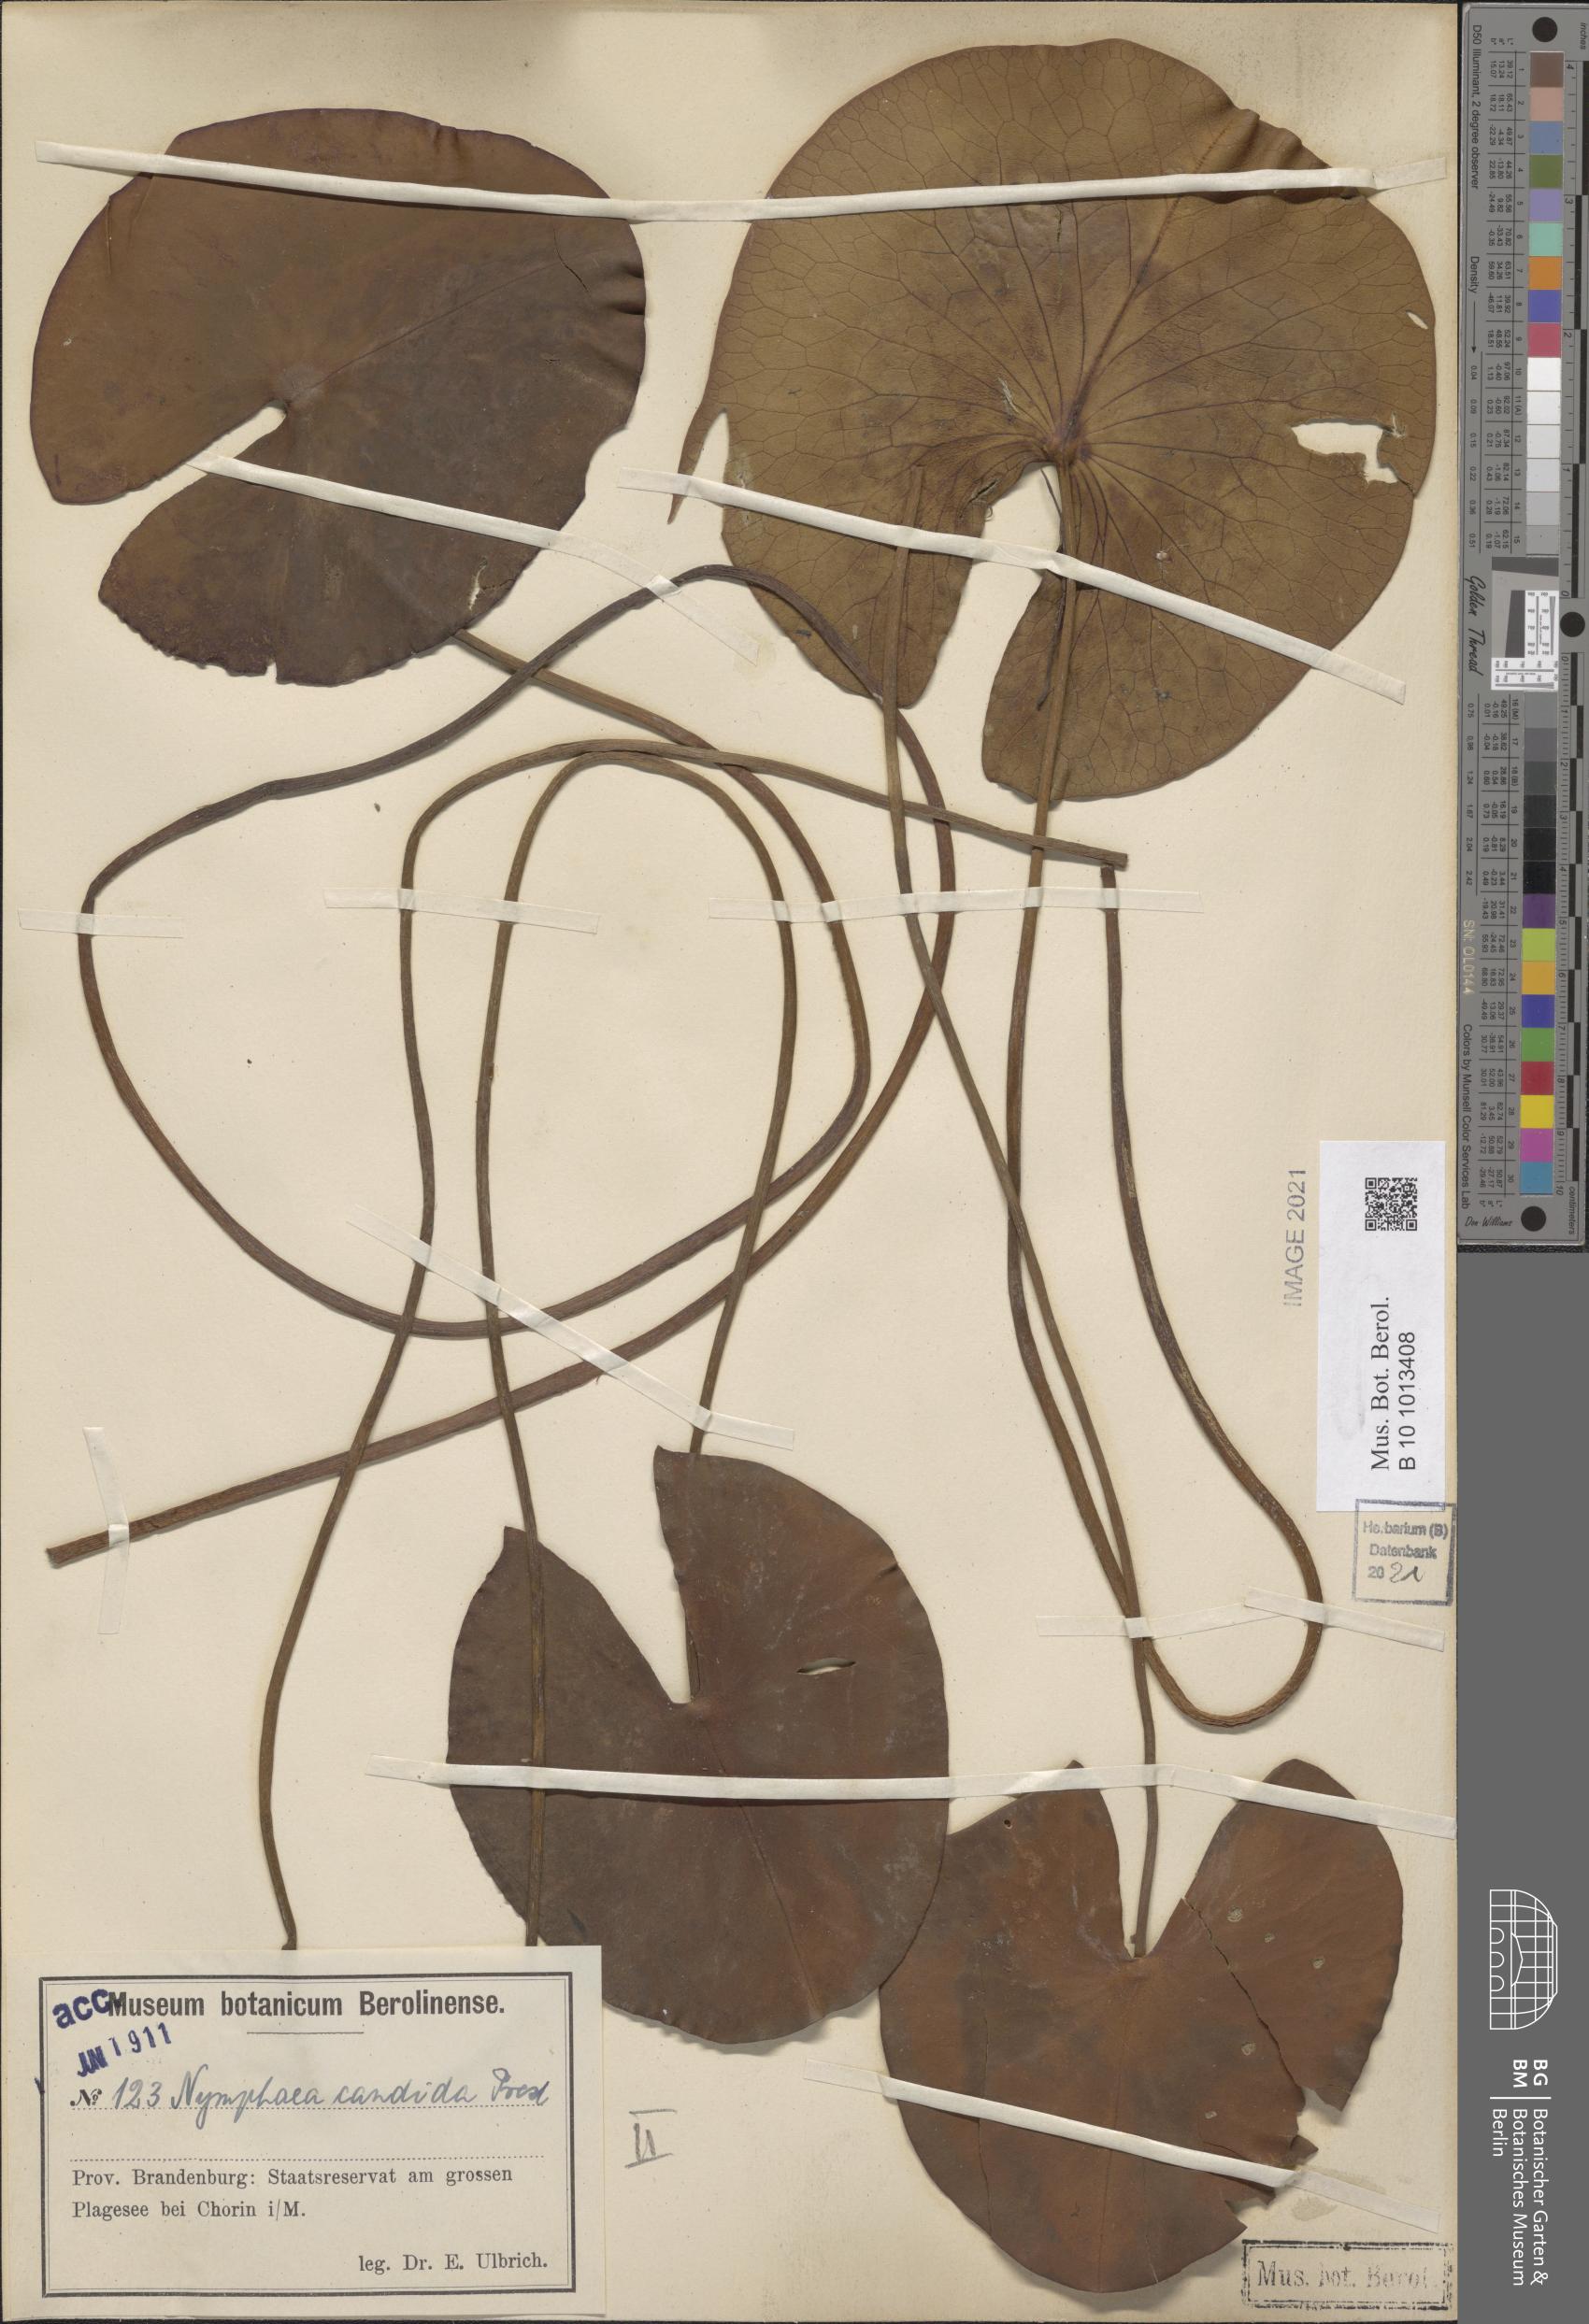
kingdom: Plantae
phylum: Tracheophyta
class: Magnoliopsida
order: Nymphaeales
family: Nymphaeaceae
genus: Nymphaea
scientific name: Nymphaea candida
